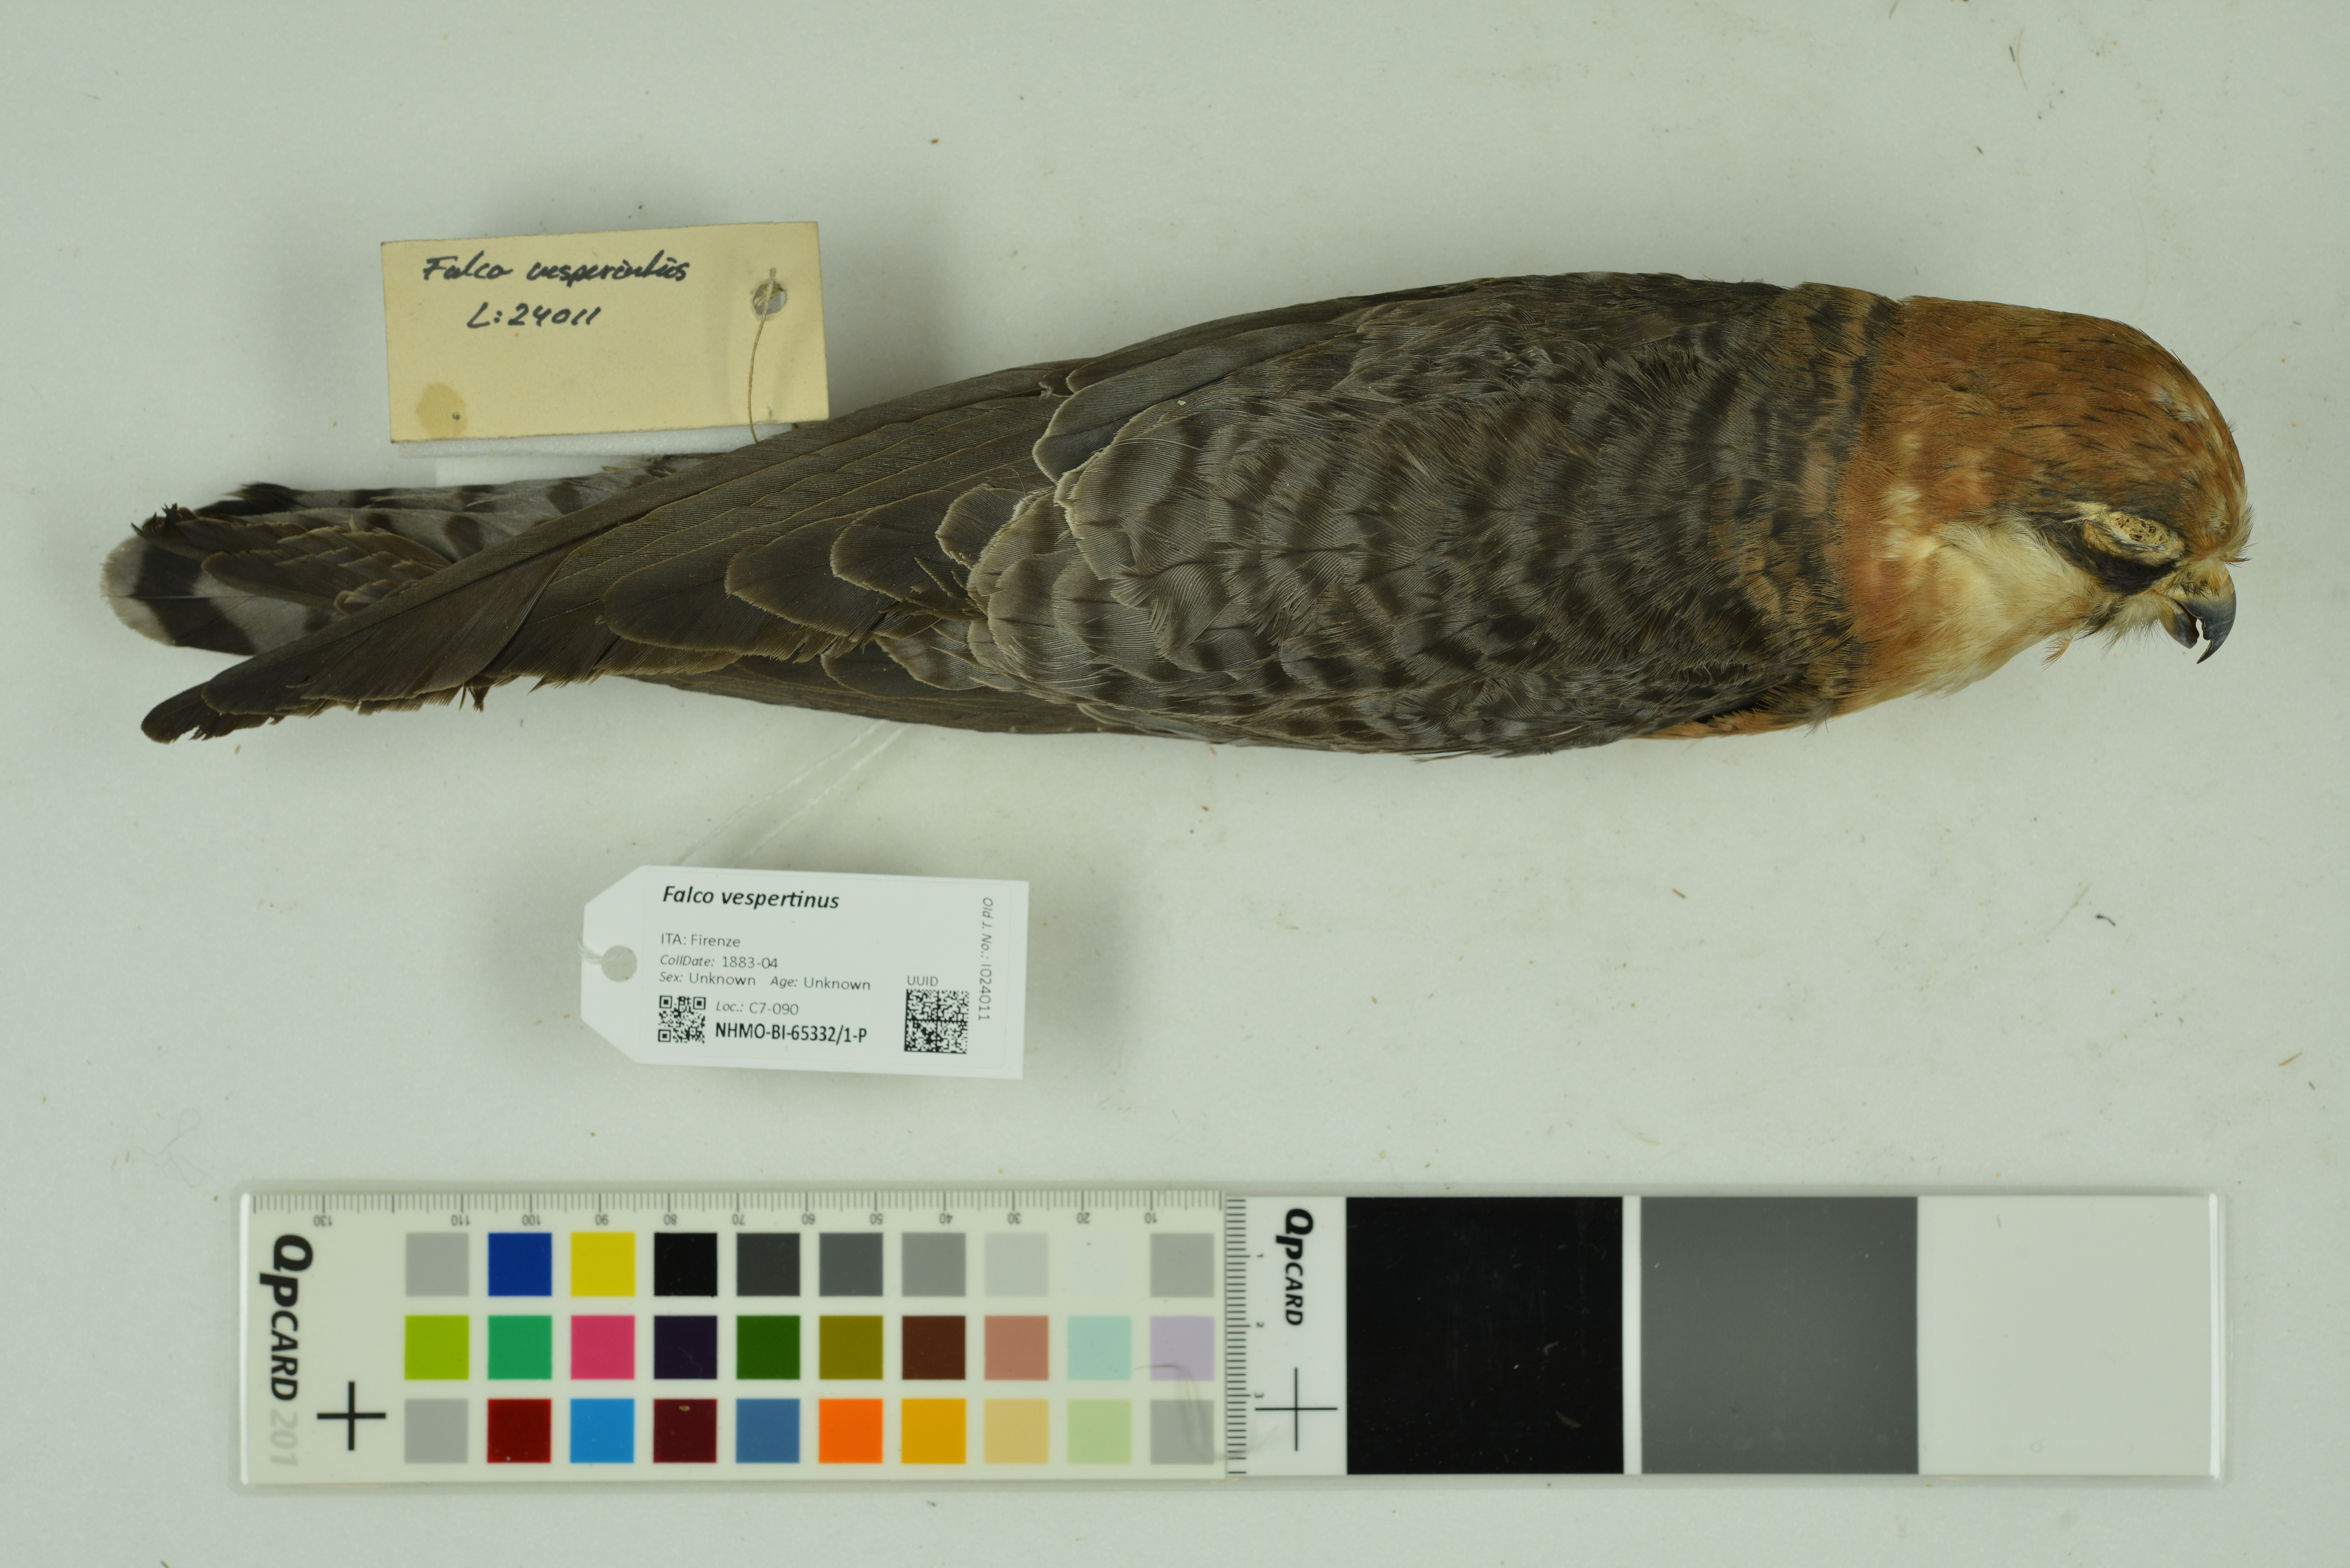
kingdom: Animalia
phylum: Chordata
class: Aves
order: Falconiformes
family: Falconidae
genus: Falco
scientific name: Falco vespertinus
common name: Red-footed falcon
